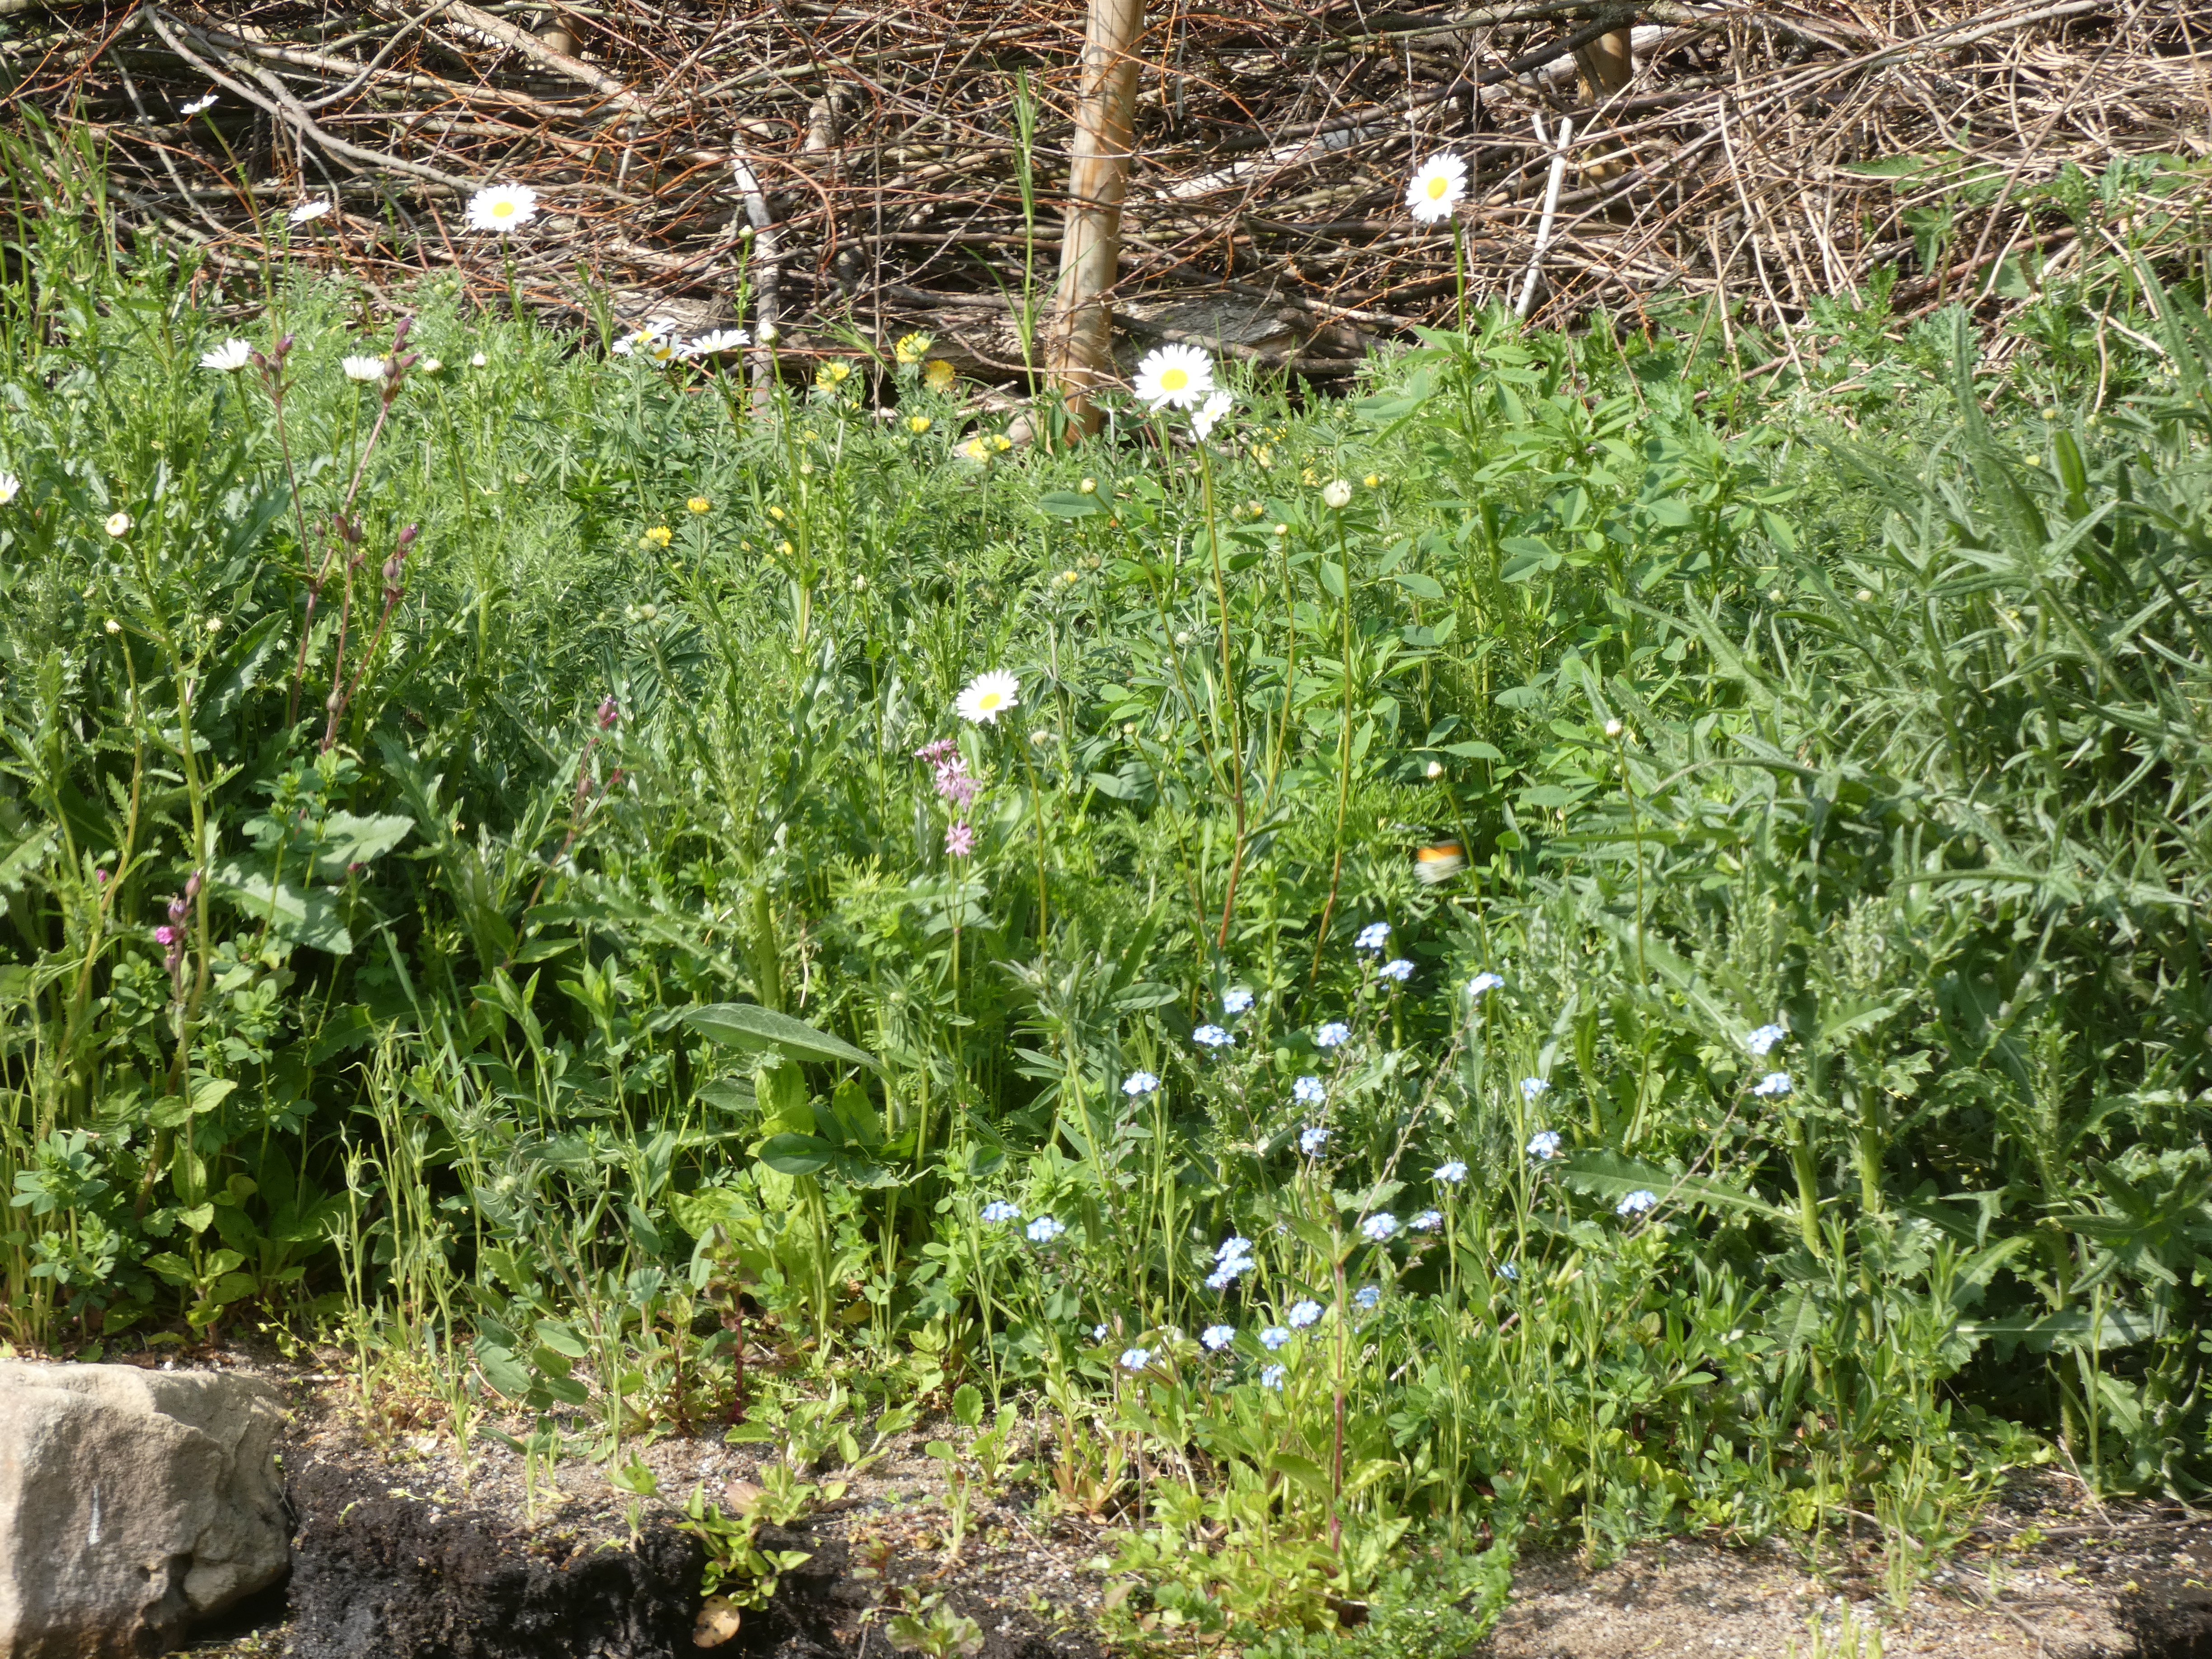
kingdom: Animalia
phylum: Arthropoda
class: Insecta
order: Lepidoptera
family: Pieridae
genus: Anthocharis
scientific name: Anthocharis cardamines
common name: Aurora
